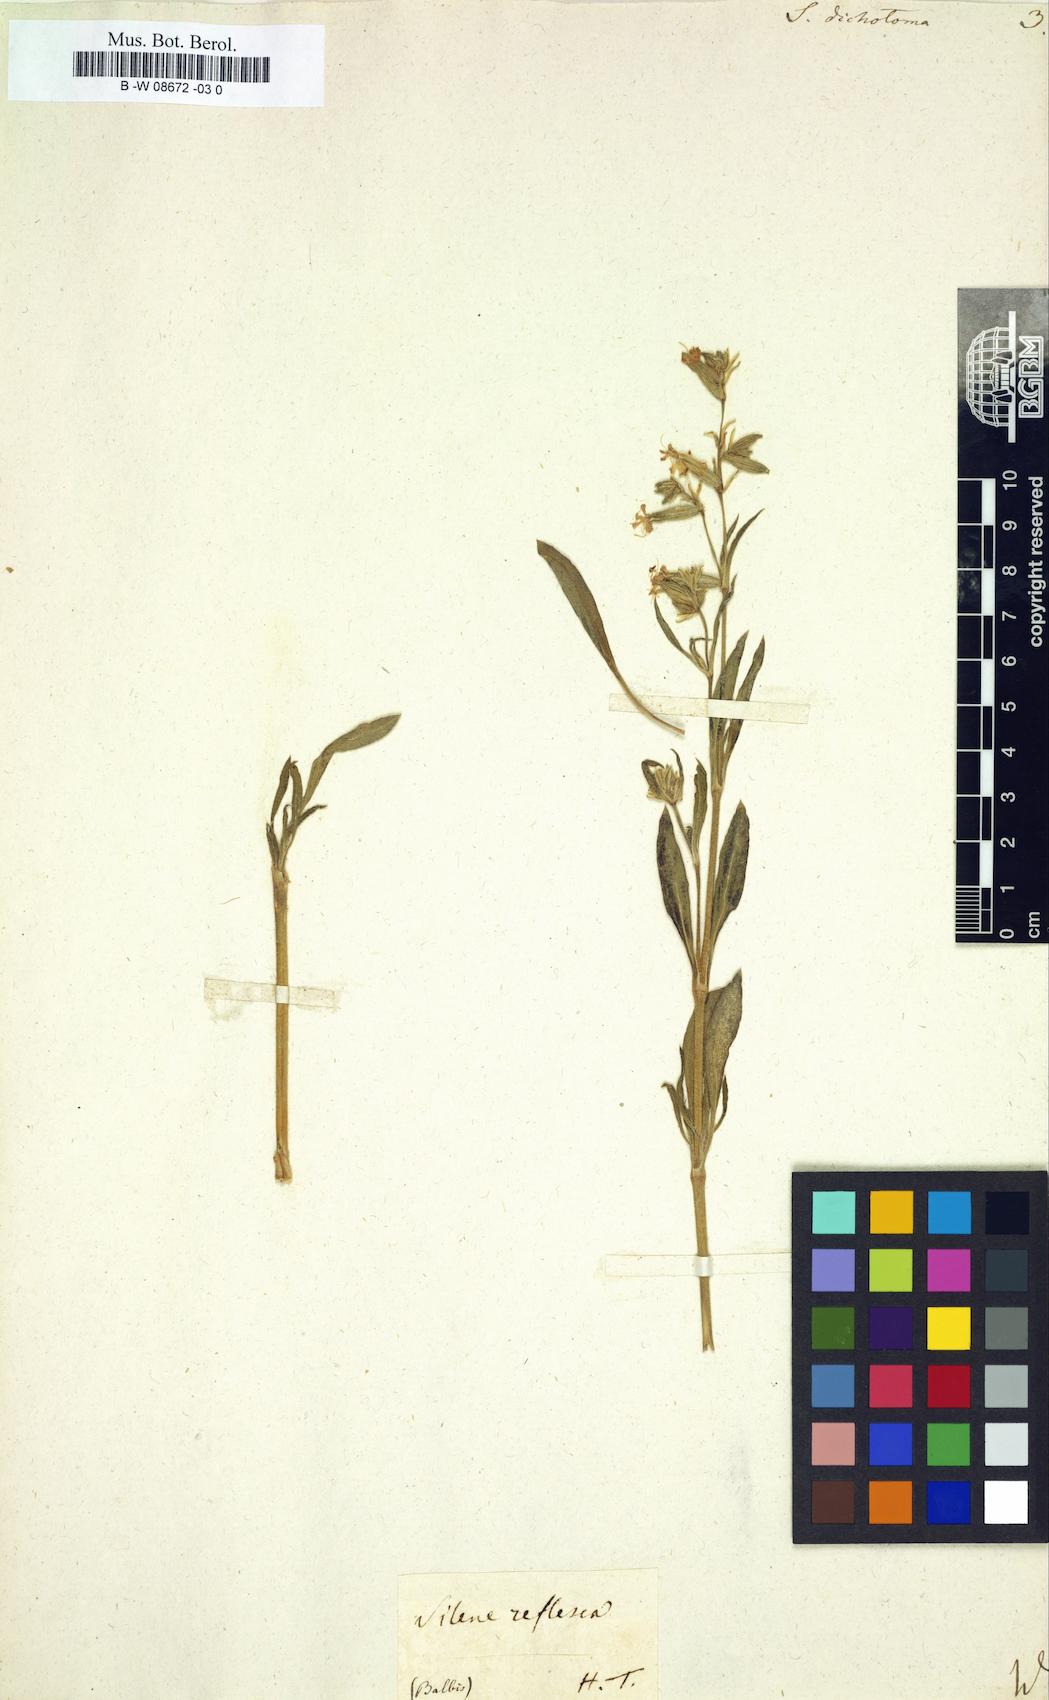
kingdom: Plantae
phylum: Tracheophyta
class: Magnoliopsida
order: Caryophyllales
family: Caryophyllaceae
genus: Silene
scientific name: Silene dichotoma
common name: Forked catchfly
